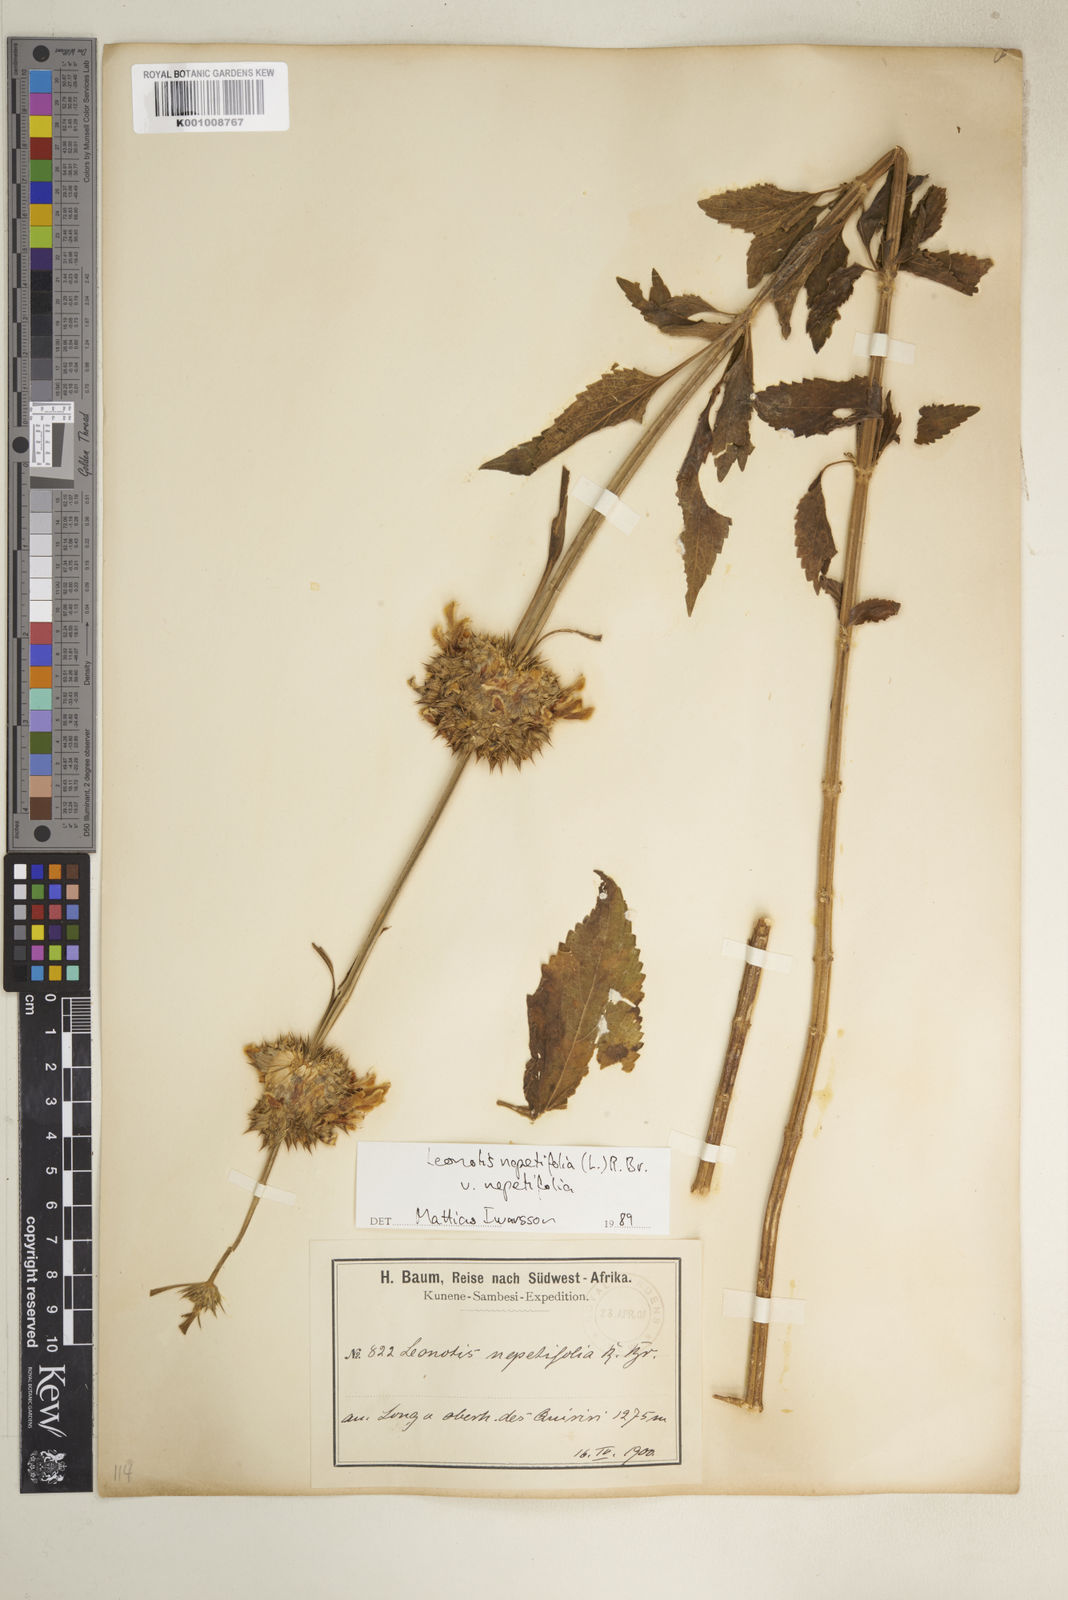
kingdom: Plantae
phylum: Tracheophyta
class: Magnoliopsida
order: Lamiales
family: Lamiaceae
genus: Leonotis
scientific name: Leonotis nepetifolia
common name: Christmas candlestick
